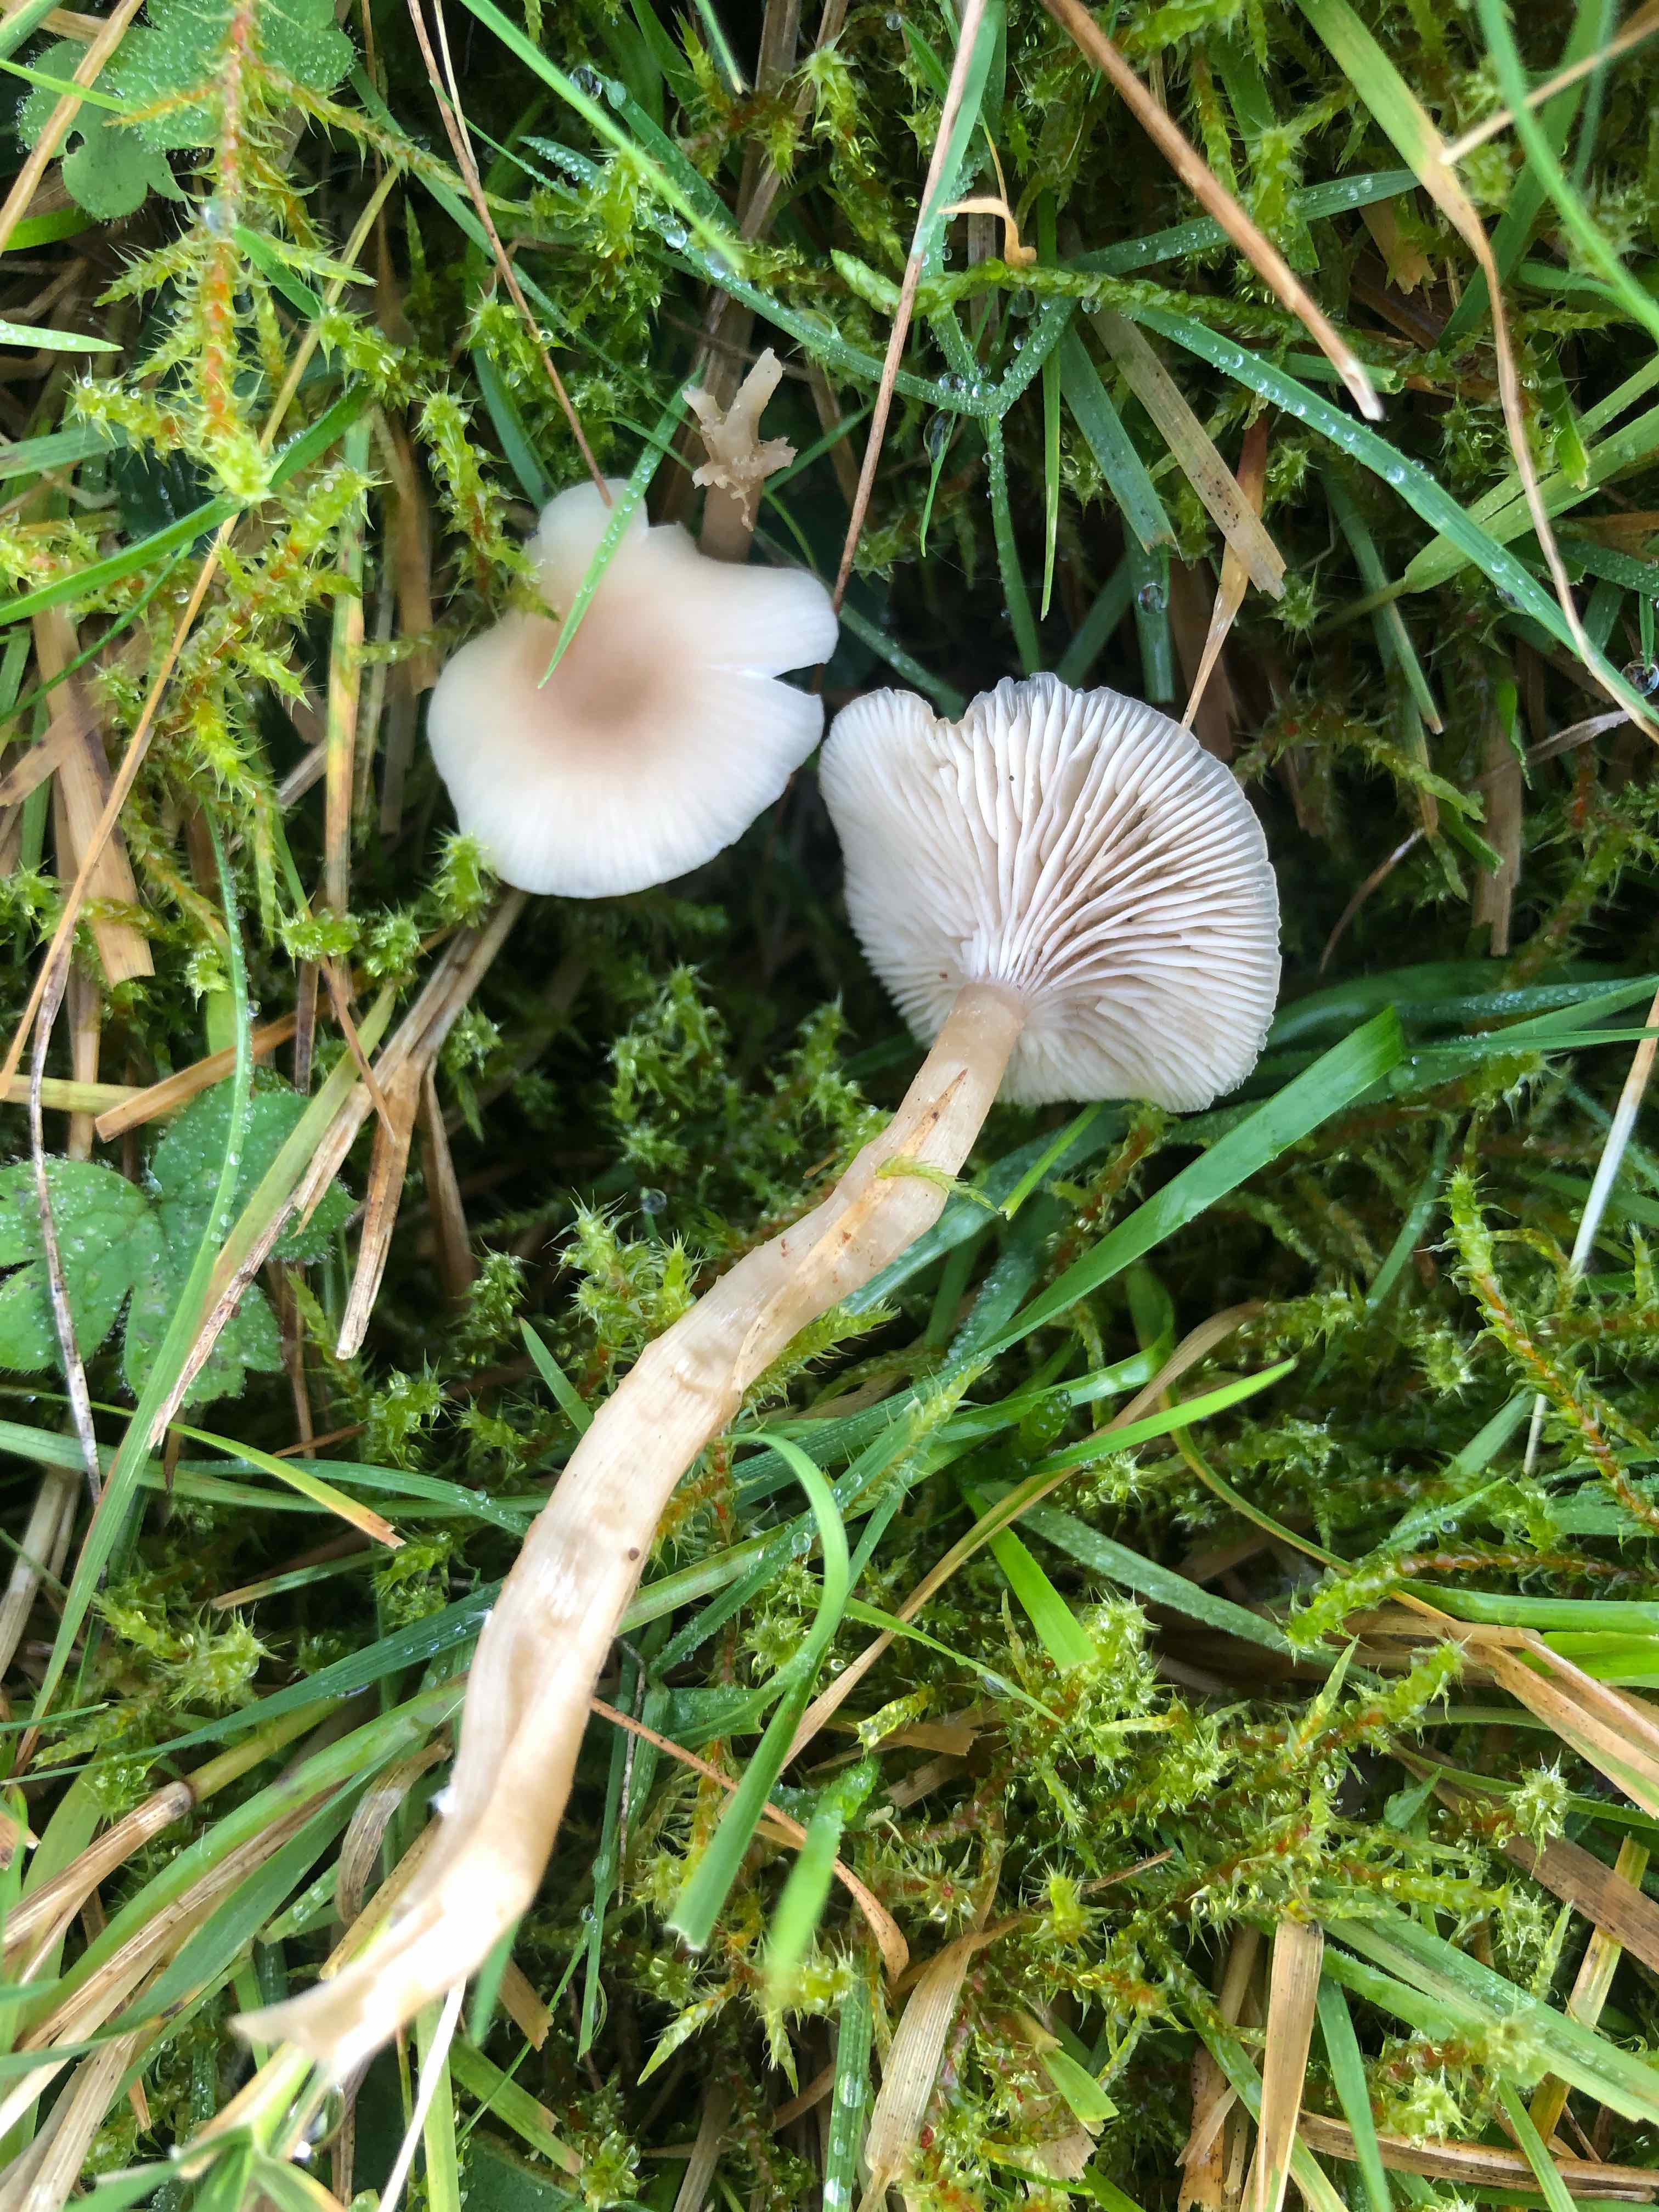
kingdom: Fungi
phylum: Basidiomycota
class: Agaricomycetes
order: Agaricales
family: Tricholomataceae
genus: Clitocybe
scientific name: Clitocybe fragrans
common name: vellugtende tragthat
